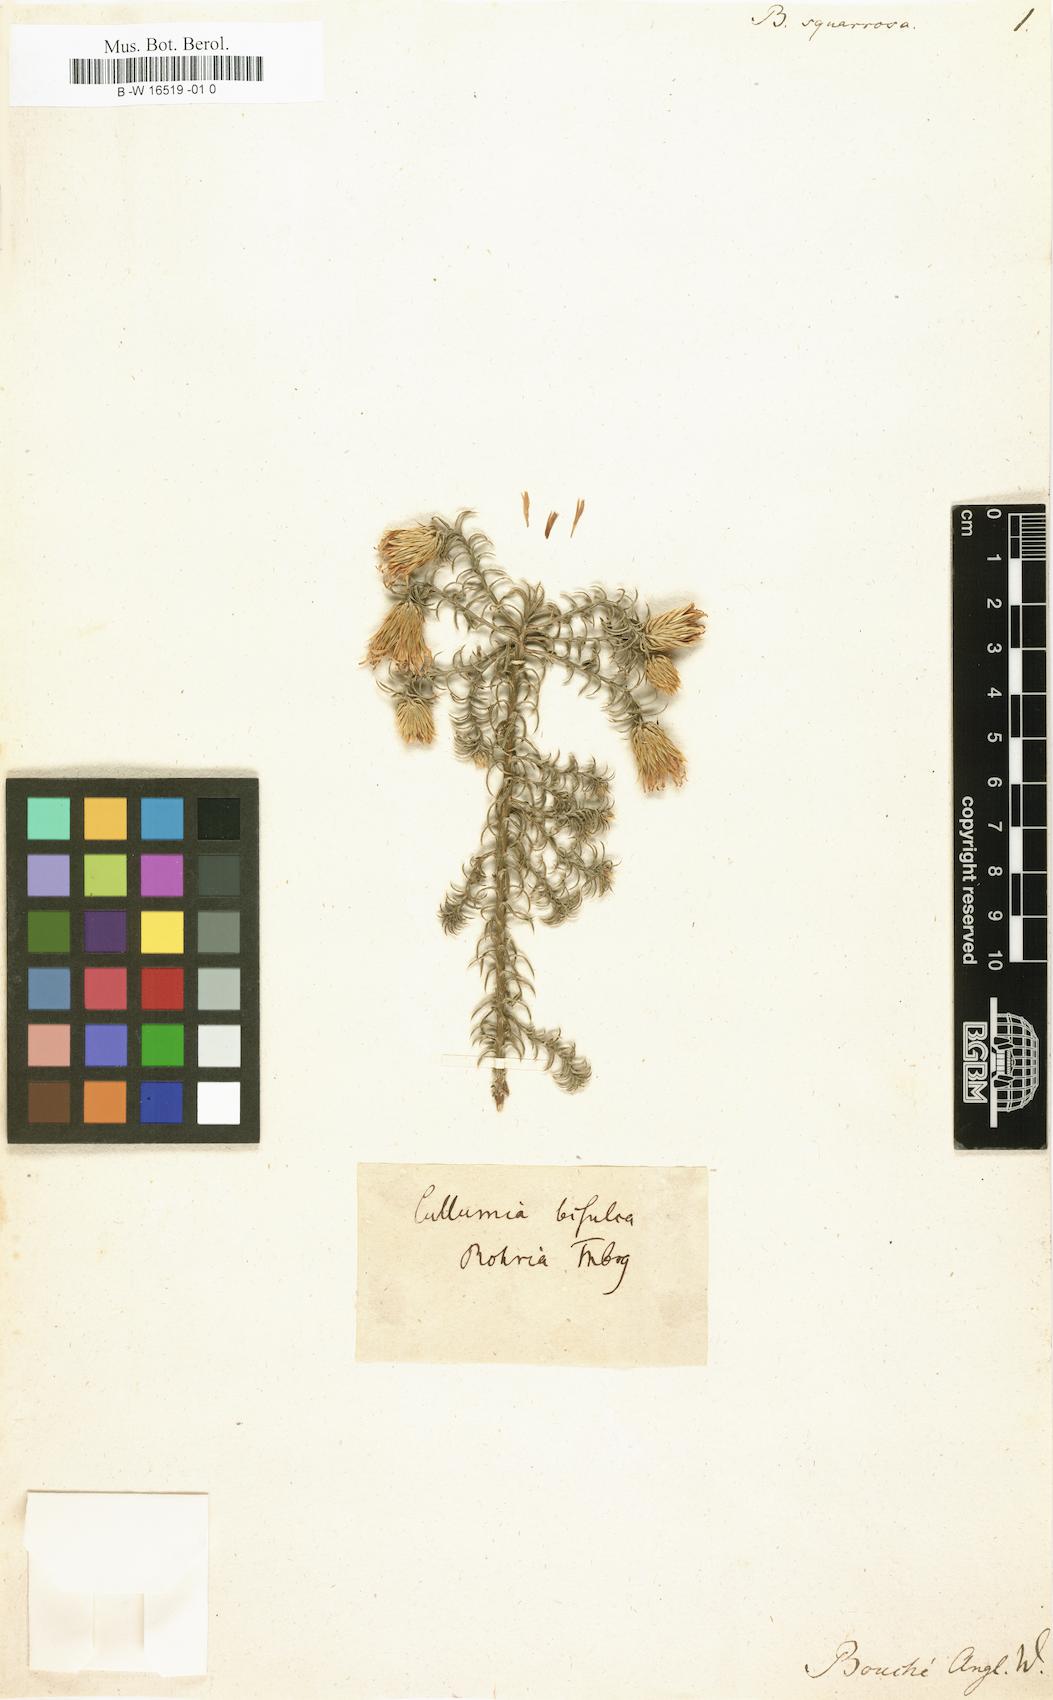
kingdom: Plantae
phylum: Tracheophyta
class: Magnoliopsida
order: Asterales
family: Asteraceae
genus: Cullumia
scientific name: Cullumia squarrosa
